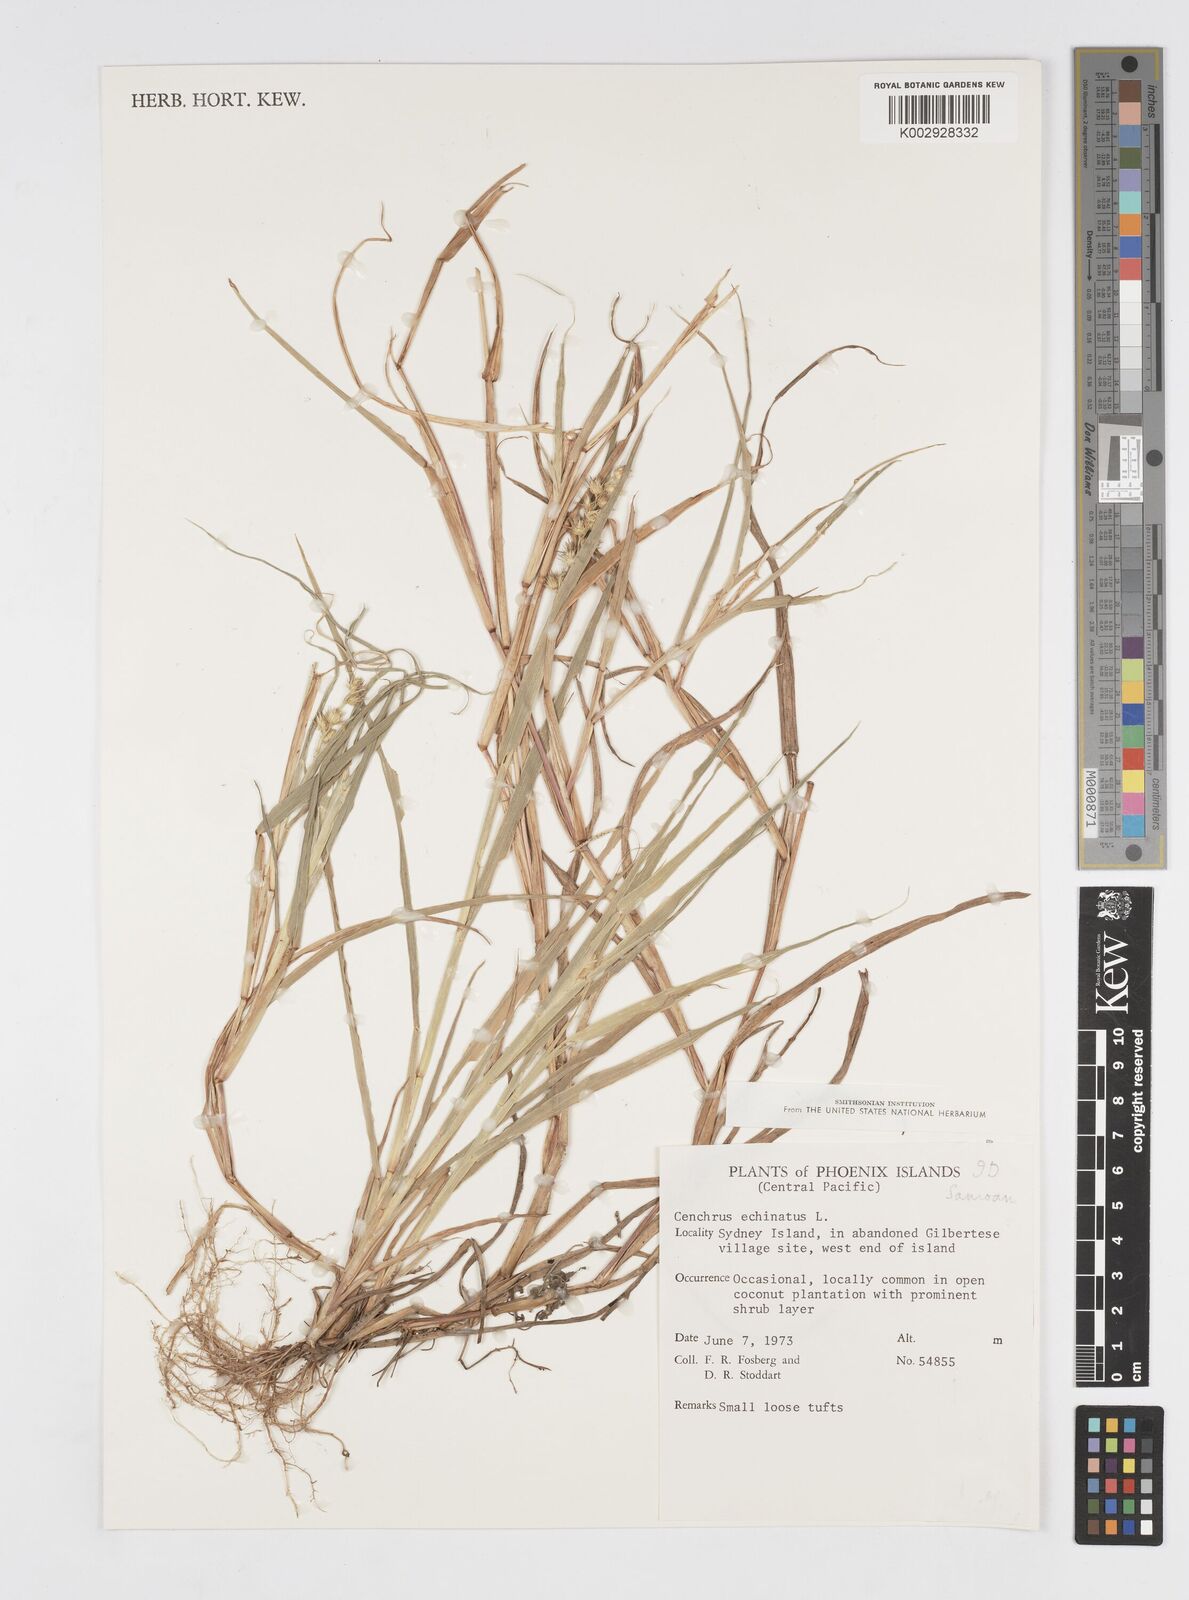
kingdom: Plantae
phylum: Tracheophyta
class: Liliopsida
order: Poales
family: Poaceae
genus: Cenchrus
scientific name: Cenchrus echinatus
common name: Southern sandbur
